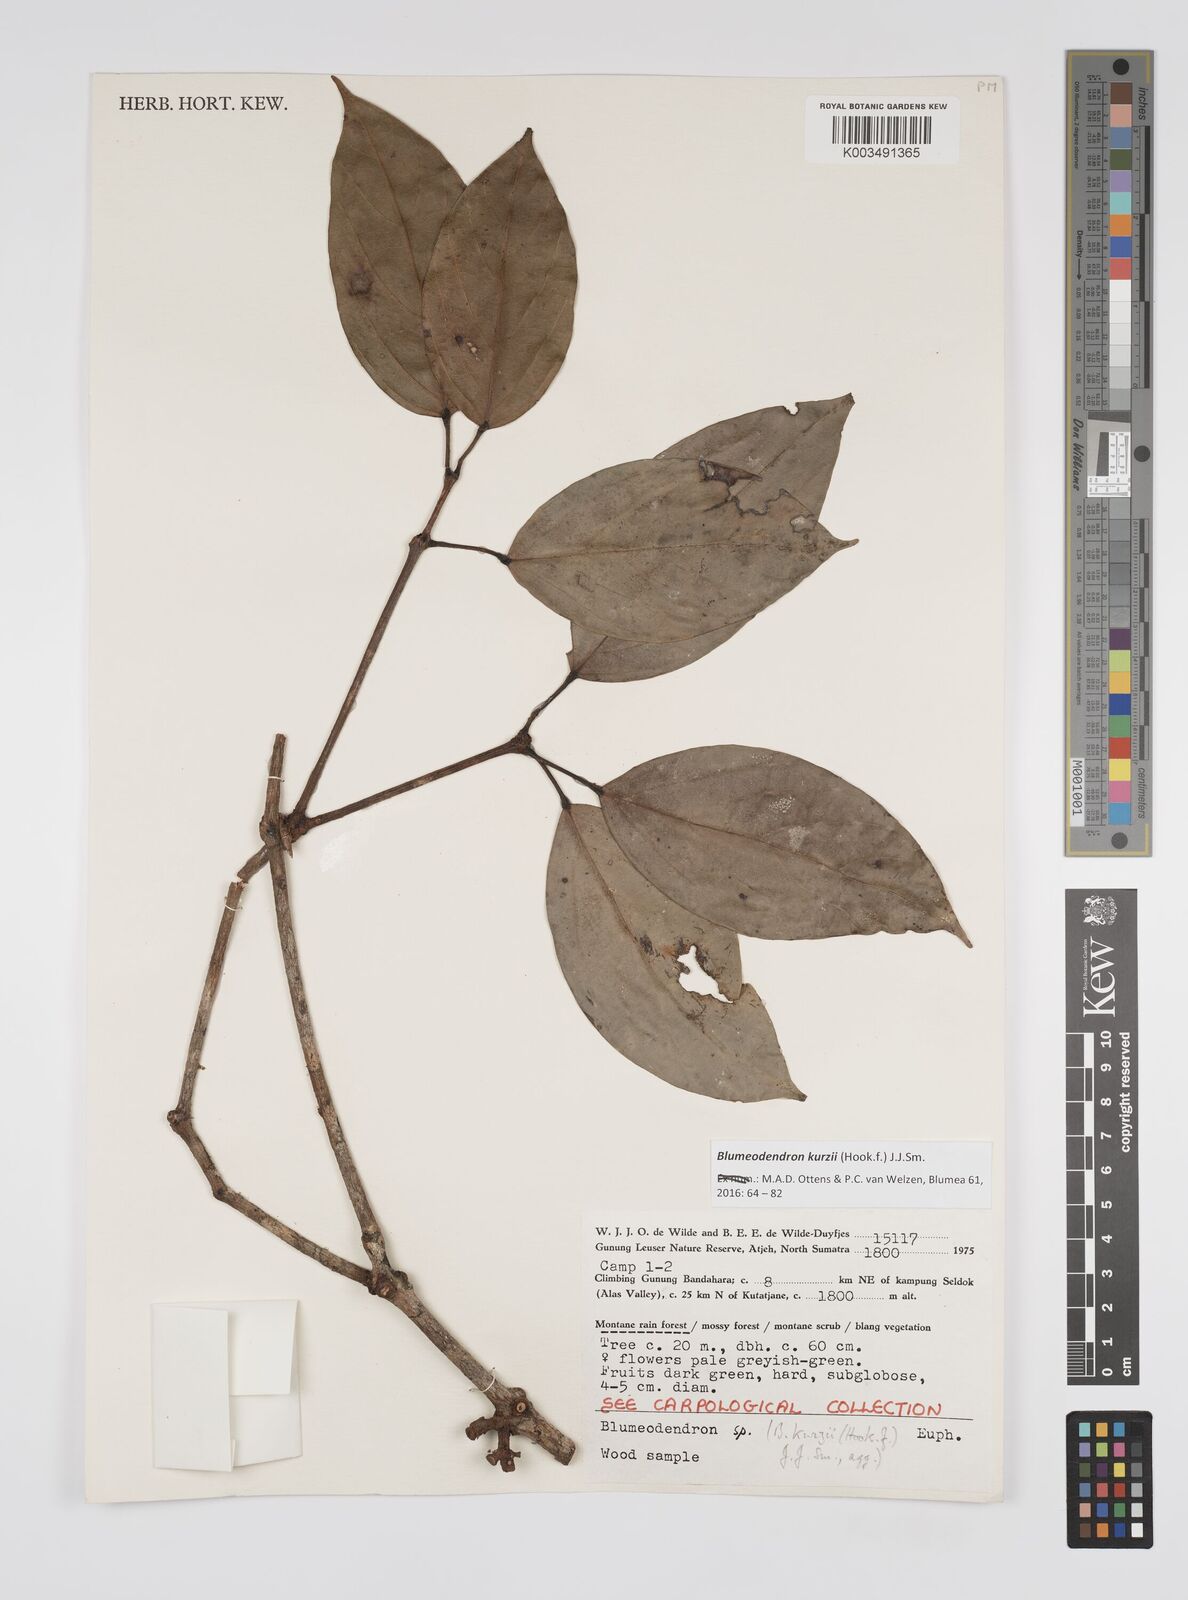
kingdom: Plantae
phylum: Tracheophyta
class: Magnoliopsida
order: Malpighiales
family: Euphorbiaceae
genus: Blumeodendron
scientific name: Blumeodendron kurzii
